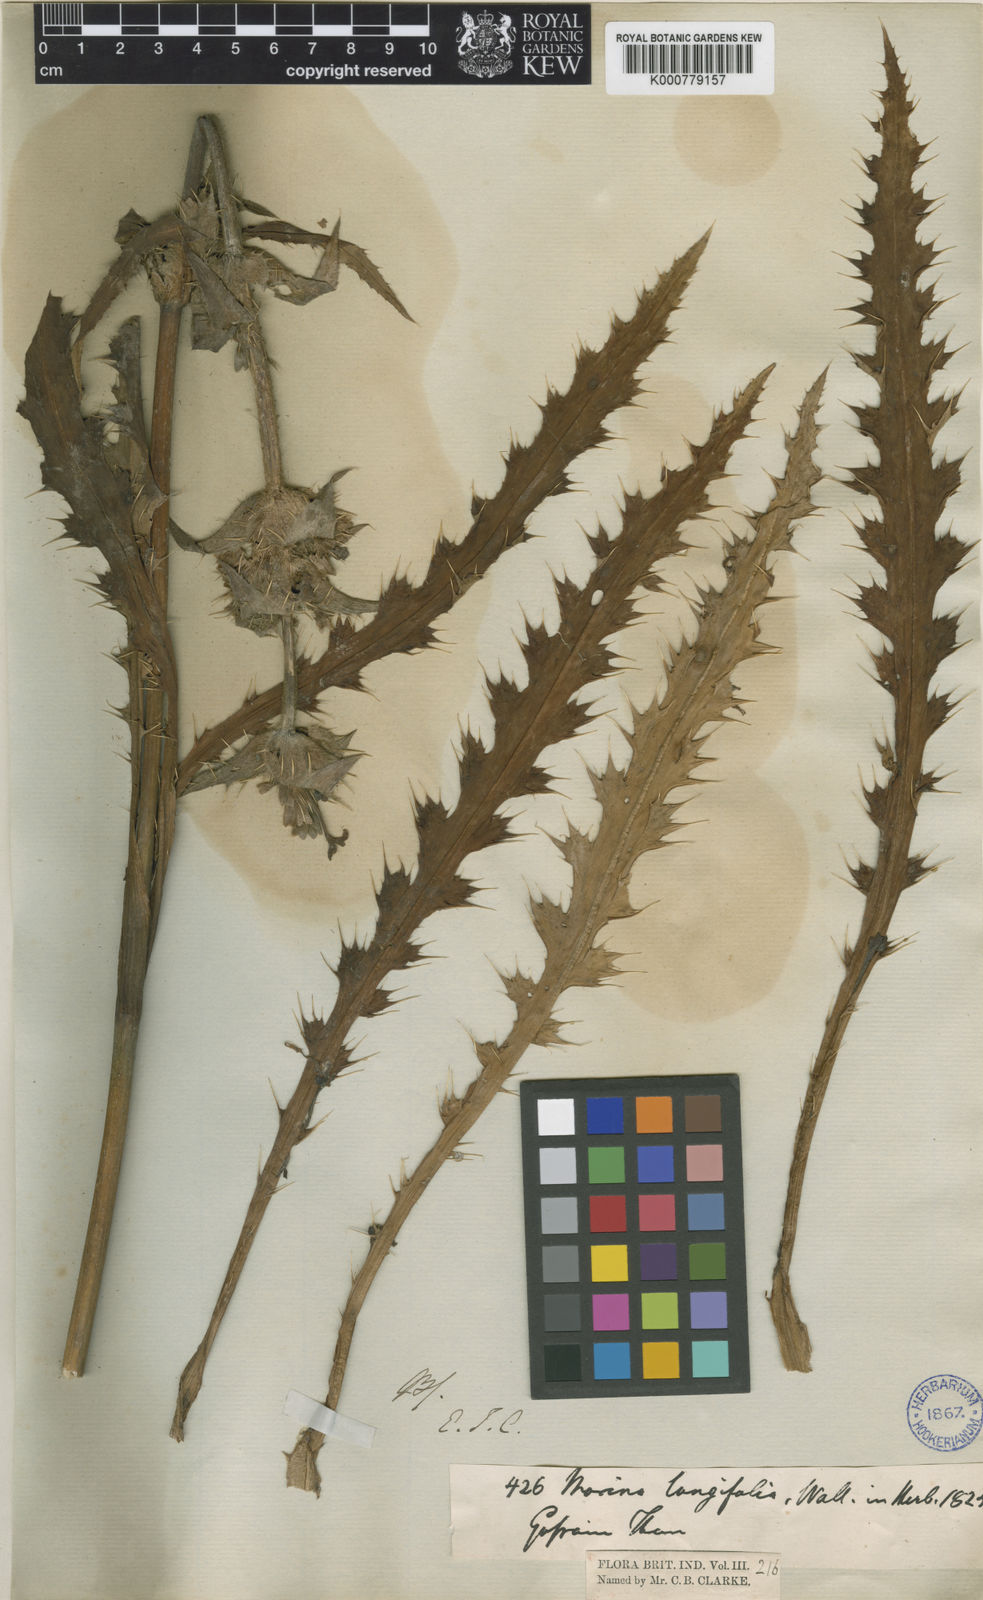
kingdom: Plantae
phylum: Tracheophyta
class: Magnoliopsida
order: Dipsacales
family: Caprifoliaceae
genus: Morina
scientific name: Morina
